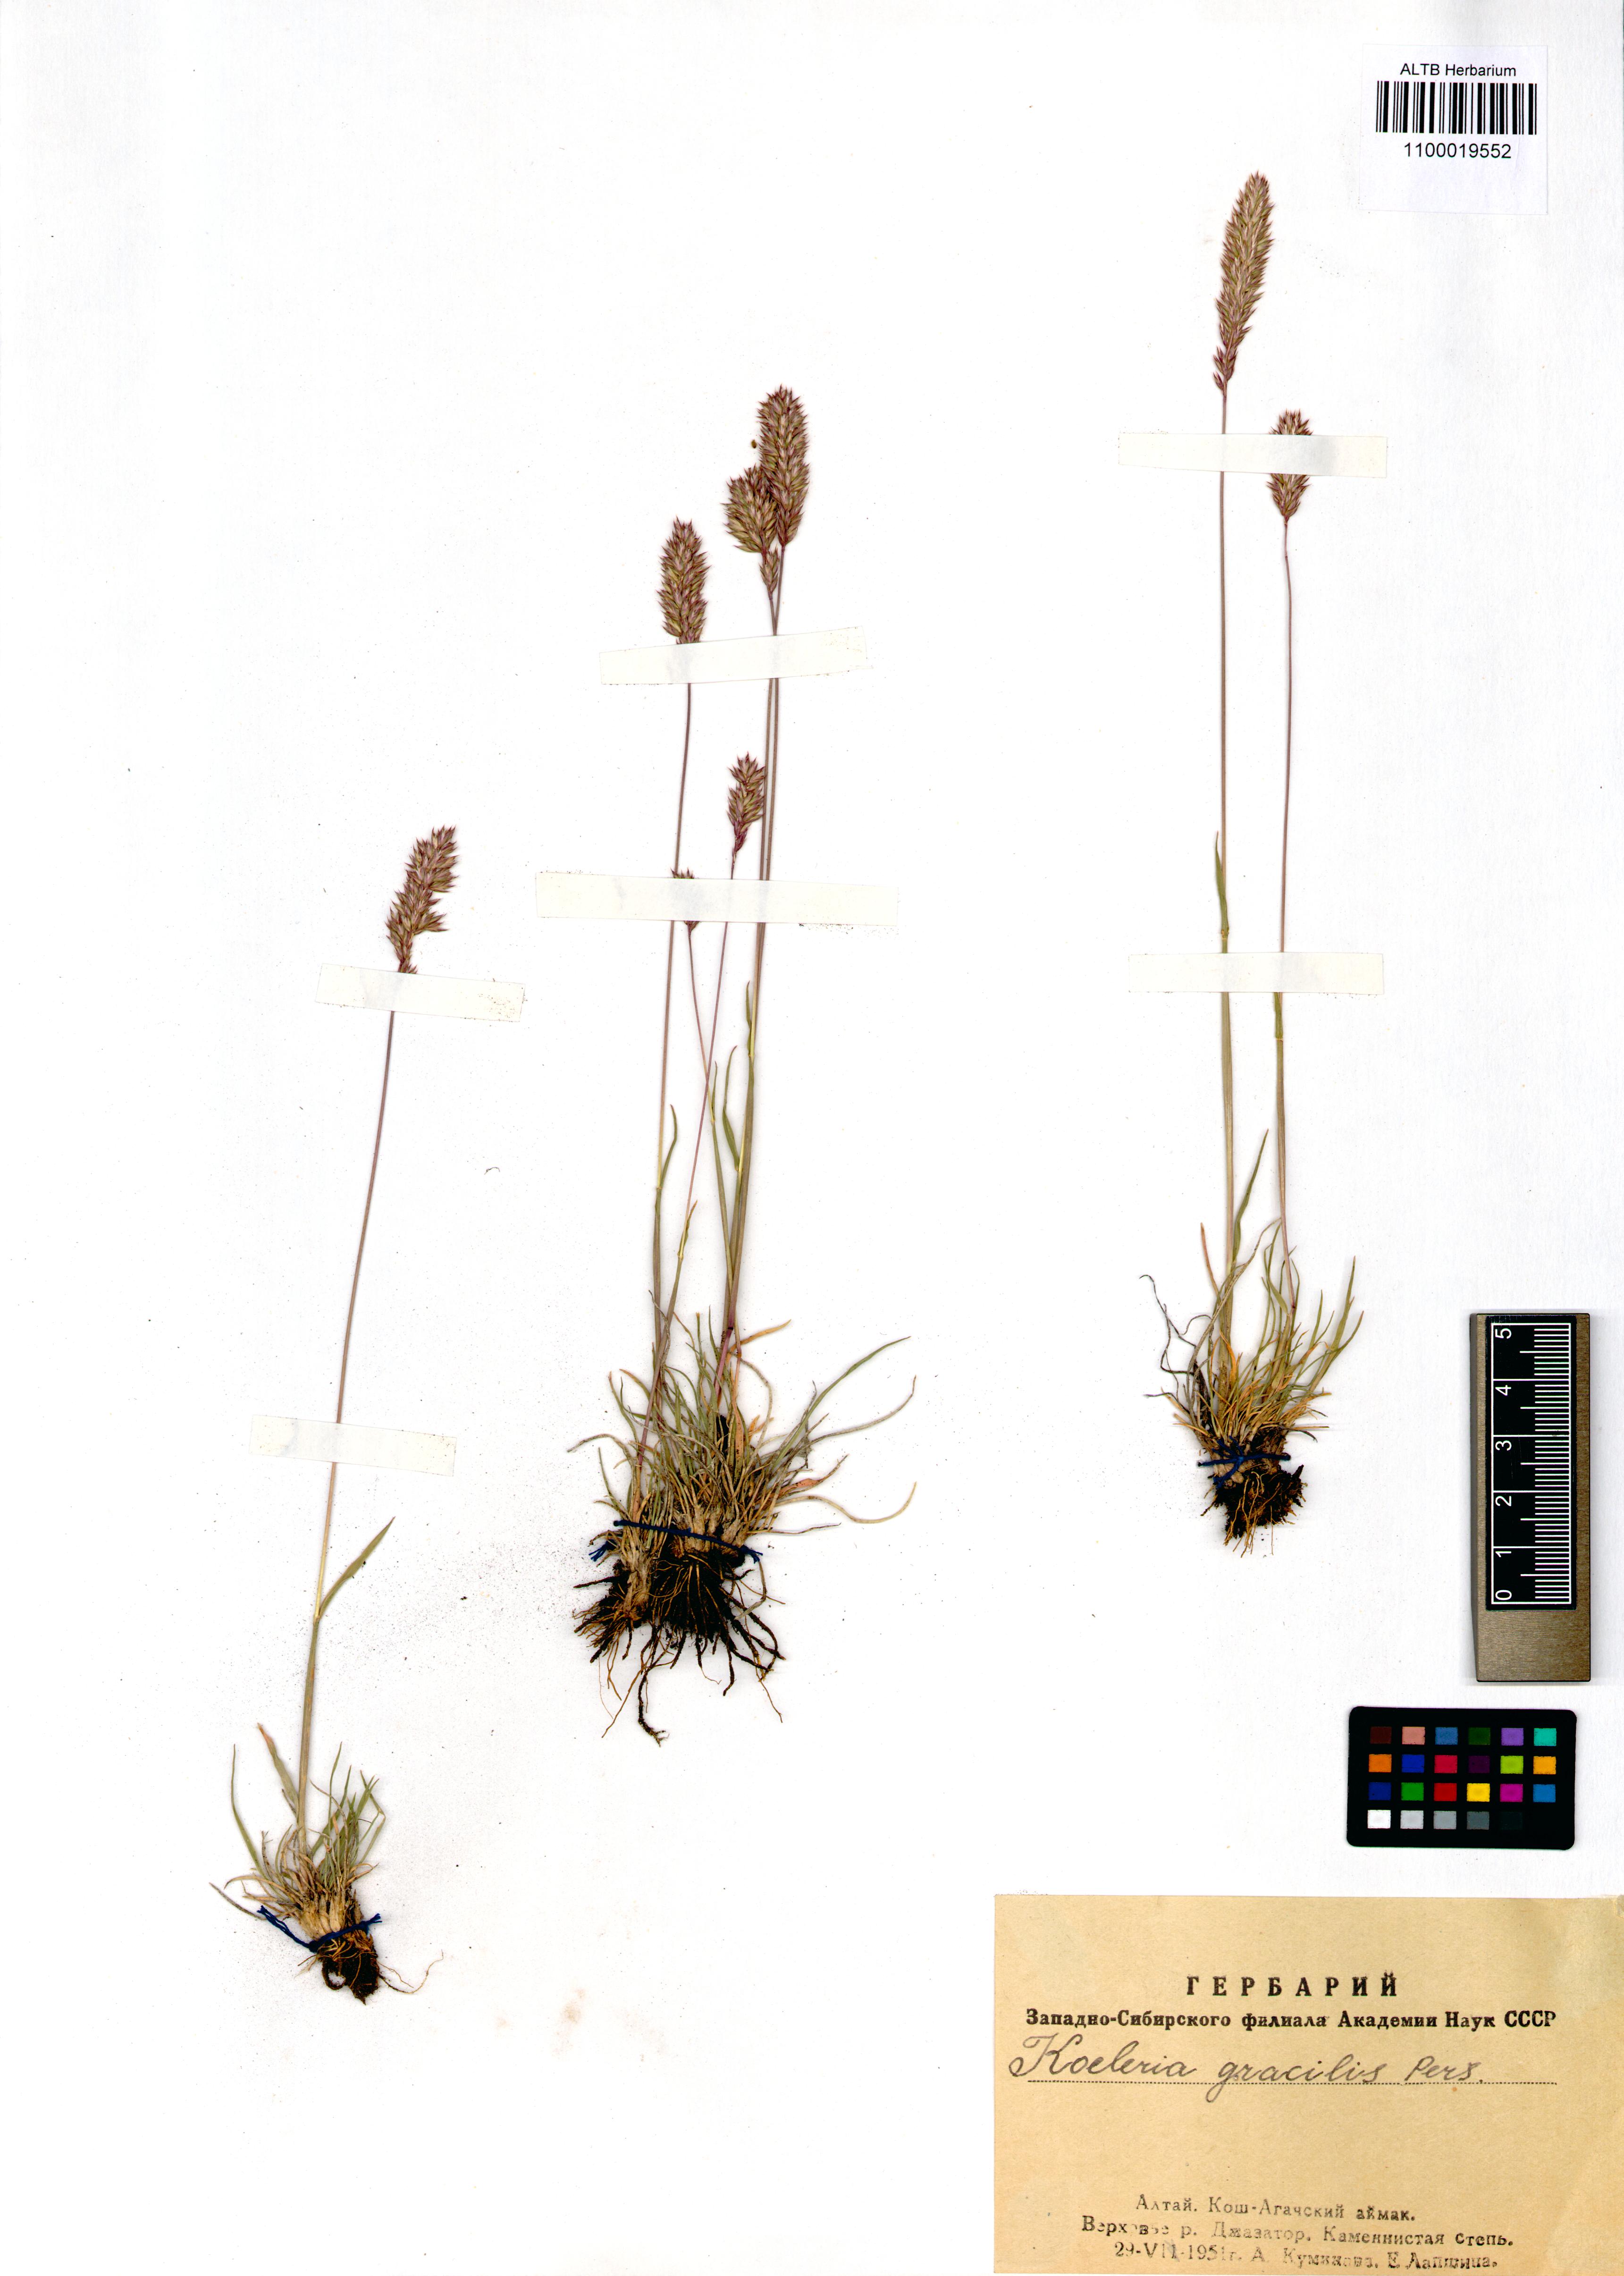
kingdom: Plantae
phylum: Tracheophyta
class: Liliopsida
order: Poales
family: Poaceae
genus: Koeleria
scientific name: Koeleria macrantha
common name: Crested hair-grass
